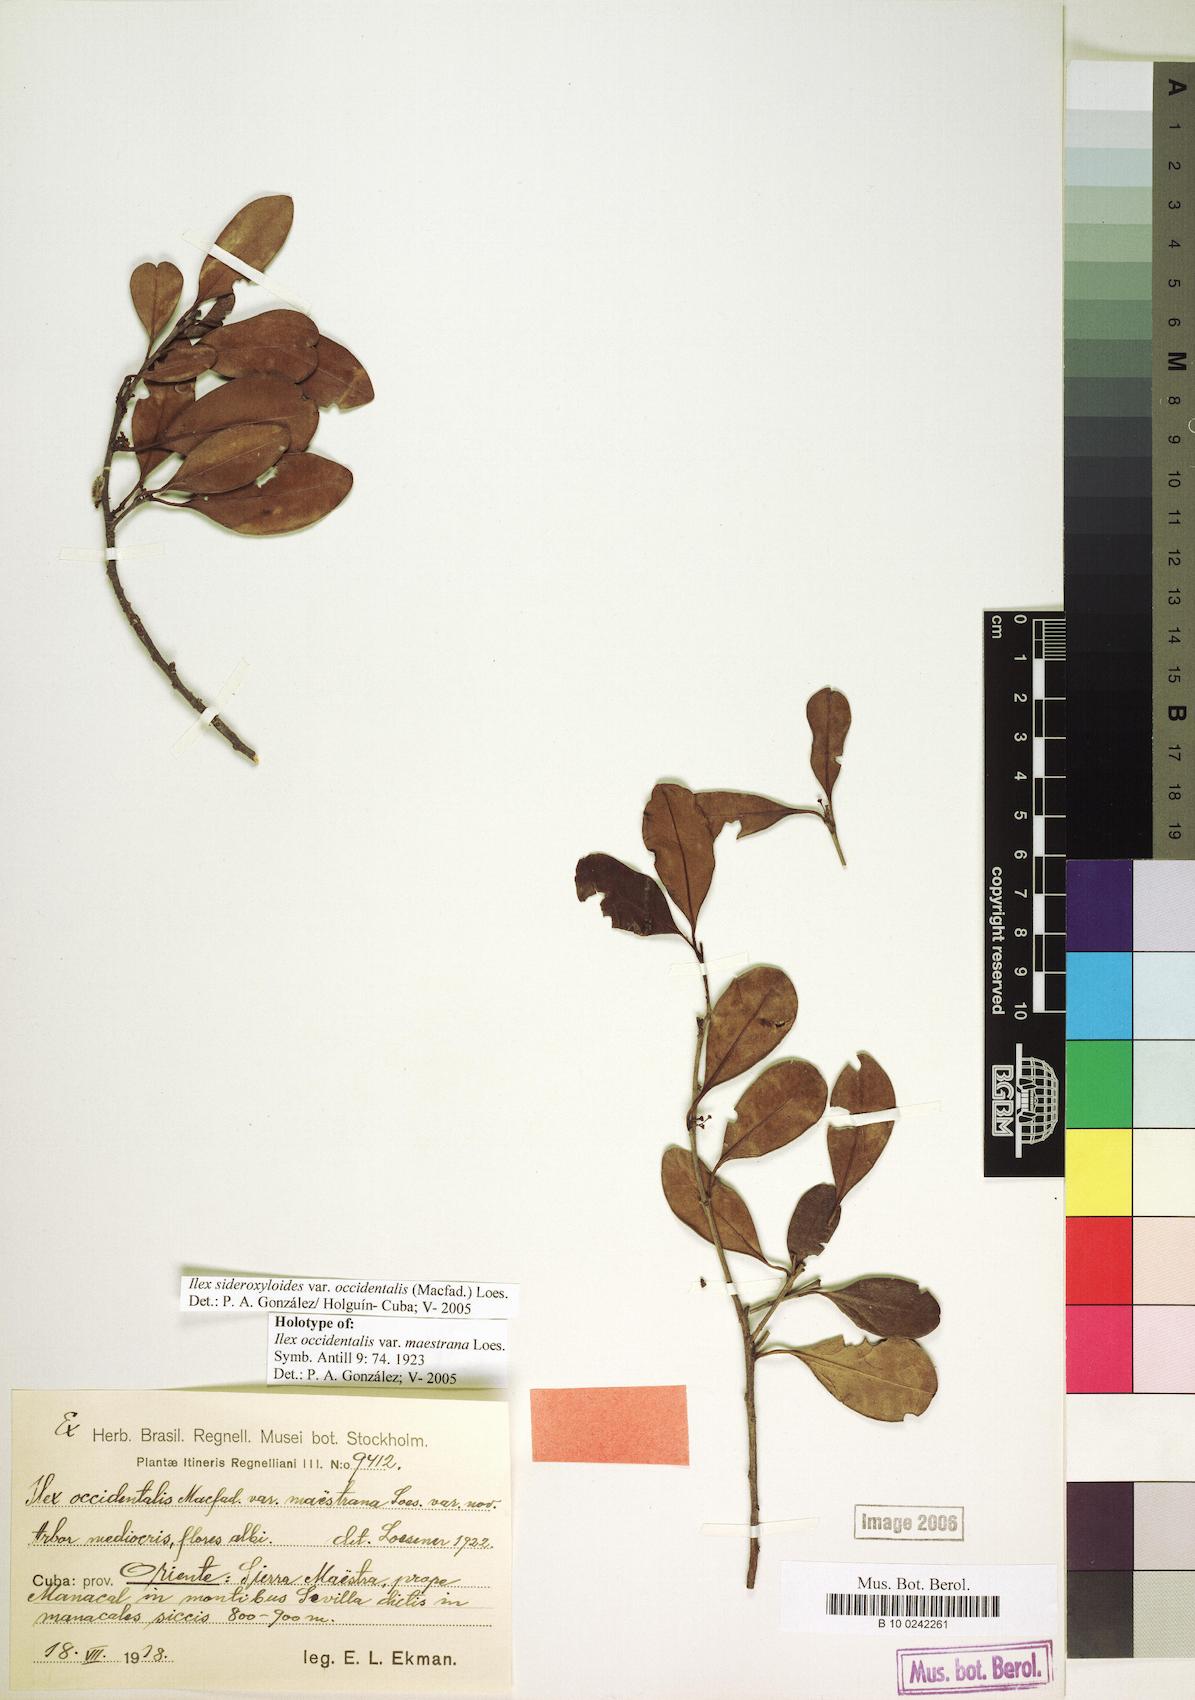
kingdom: Plantae
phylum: Tracheophyta
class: Magnoliopsida
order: Aquifoliales
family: Aquifoliaceae
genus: Ilex
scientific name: Ilex sideroxyloides
